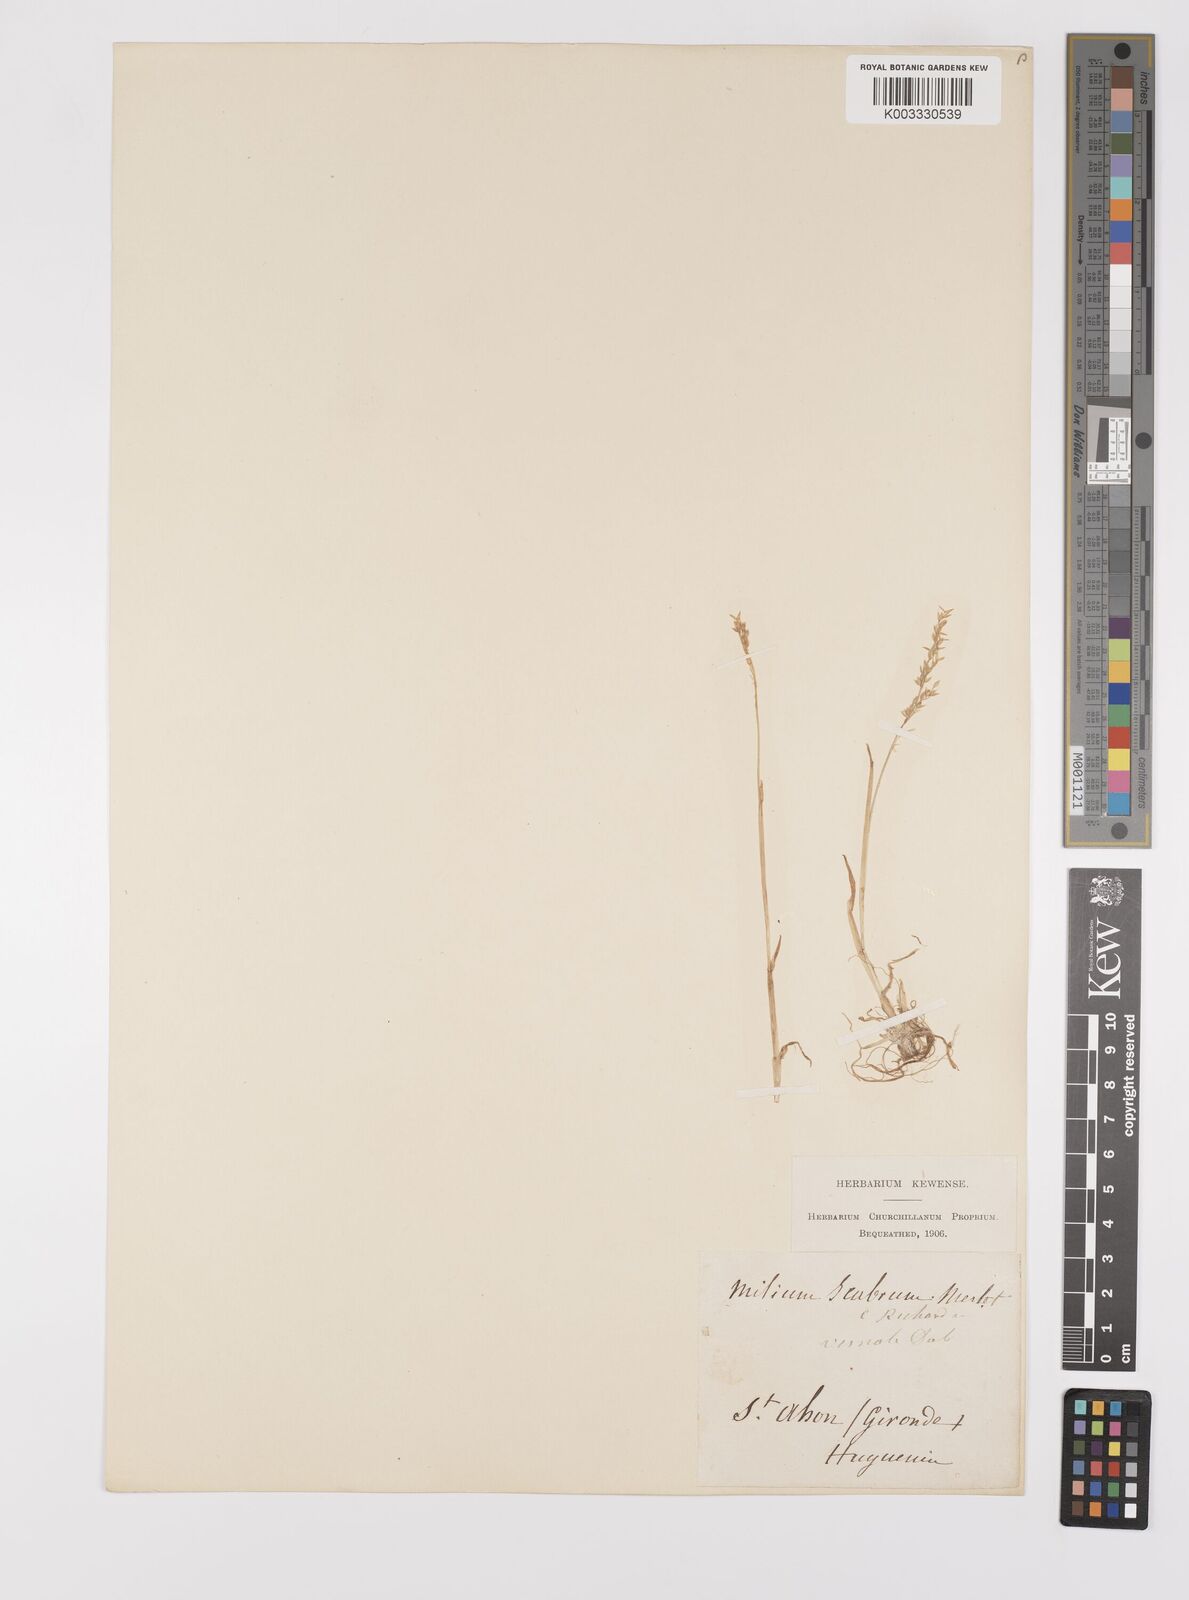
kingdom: Plantae
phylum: Tracheophyta
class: Liliopsida
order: Poales
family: Poaceae
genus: Milium
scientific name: Milium vernale
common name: Early millet
